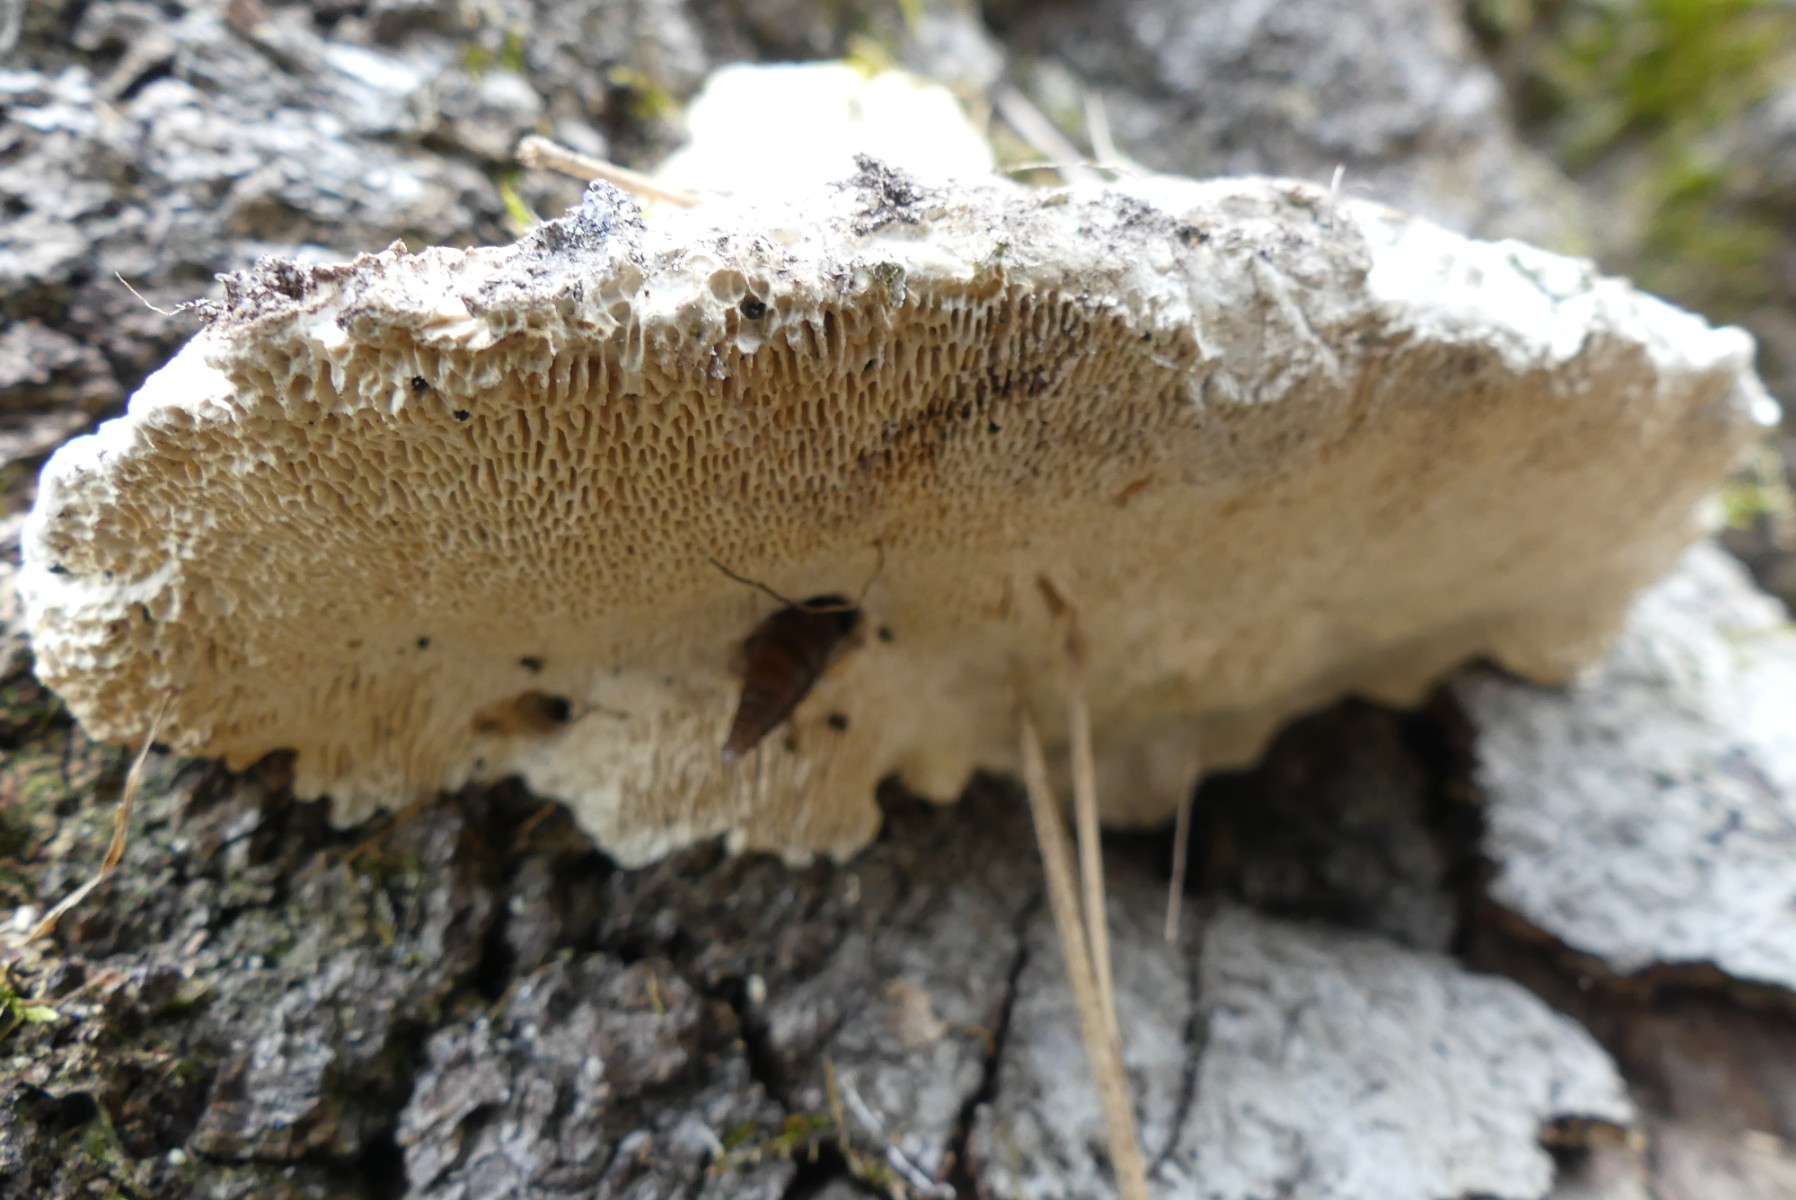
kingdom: Fungi
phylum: Basidiomycota
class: Agaricomycetes
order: Polyporales
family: Polyporaceae
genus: Trametes
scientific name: Trametes gibbosa
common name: puklet læderporesvamp
